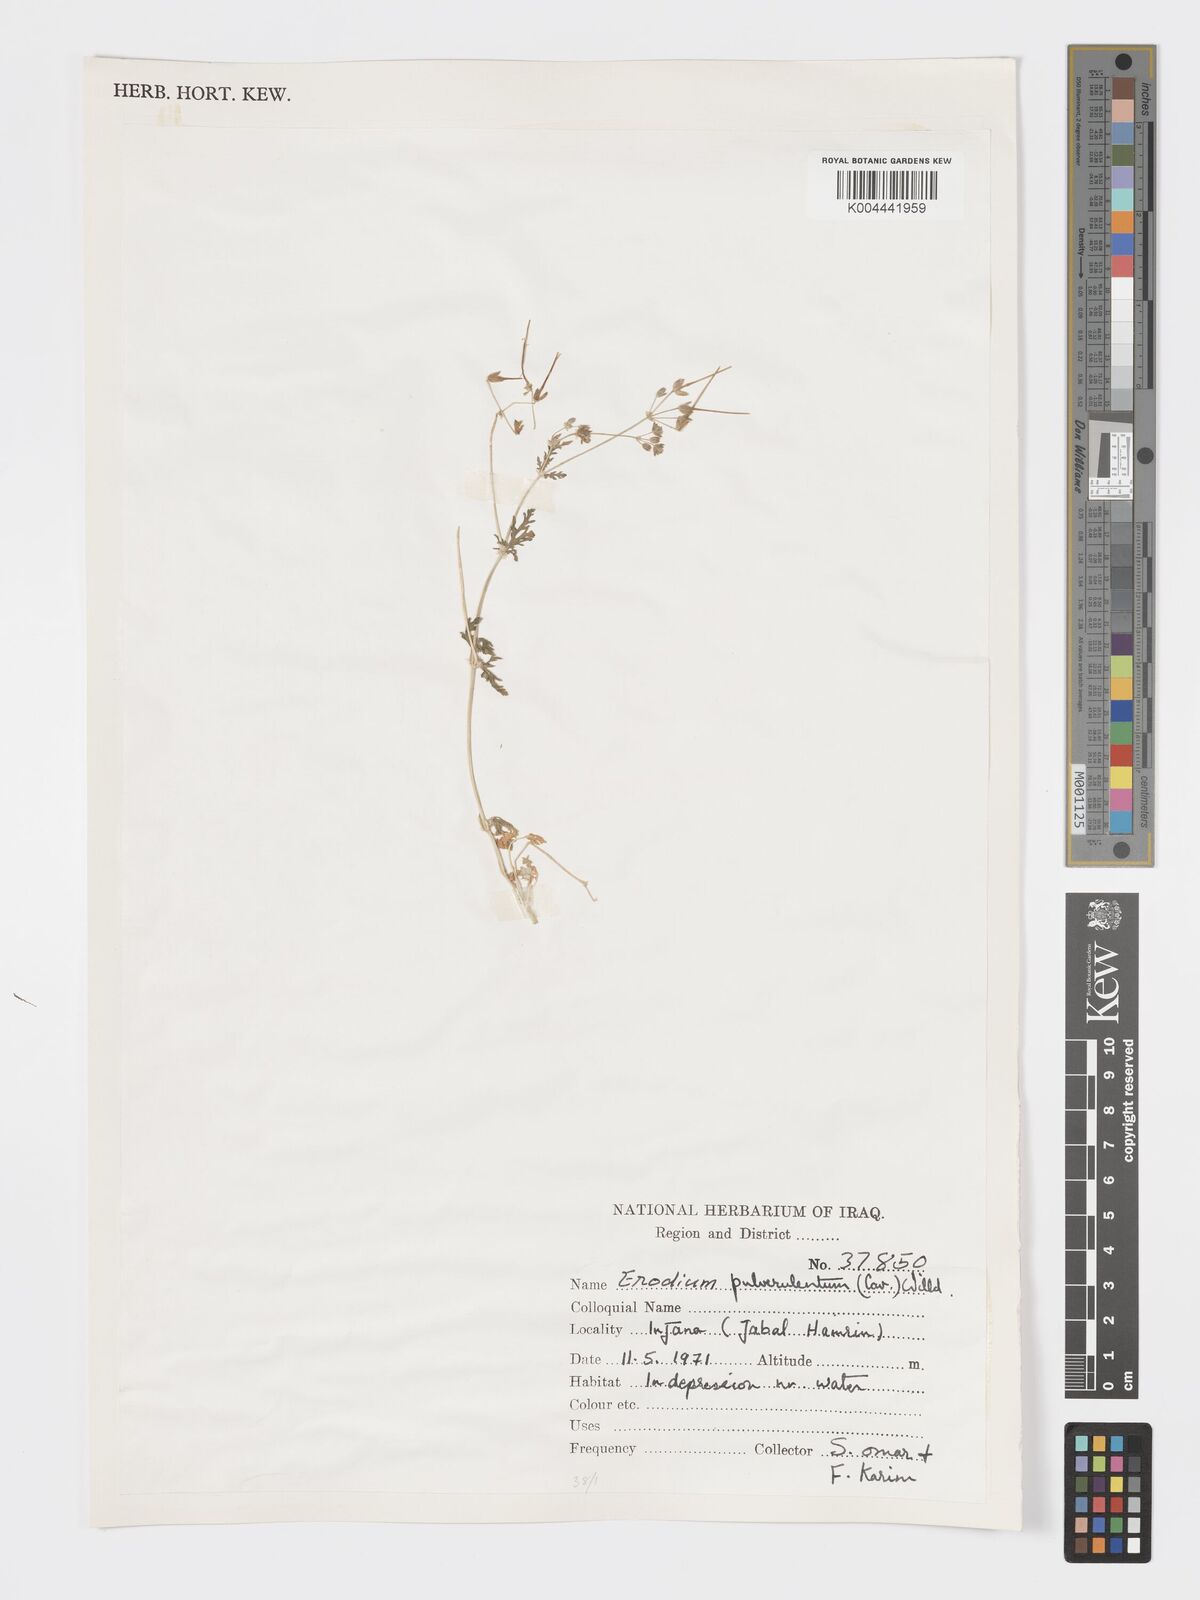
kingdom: Plantae
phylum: Tracheophyta
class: Magnoliopsida
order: Geraniales
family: Geraniaceae
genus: Erodium
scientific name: Erodium laciniatum
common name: Cutleaf stork's bill
